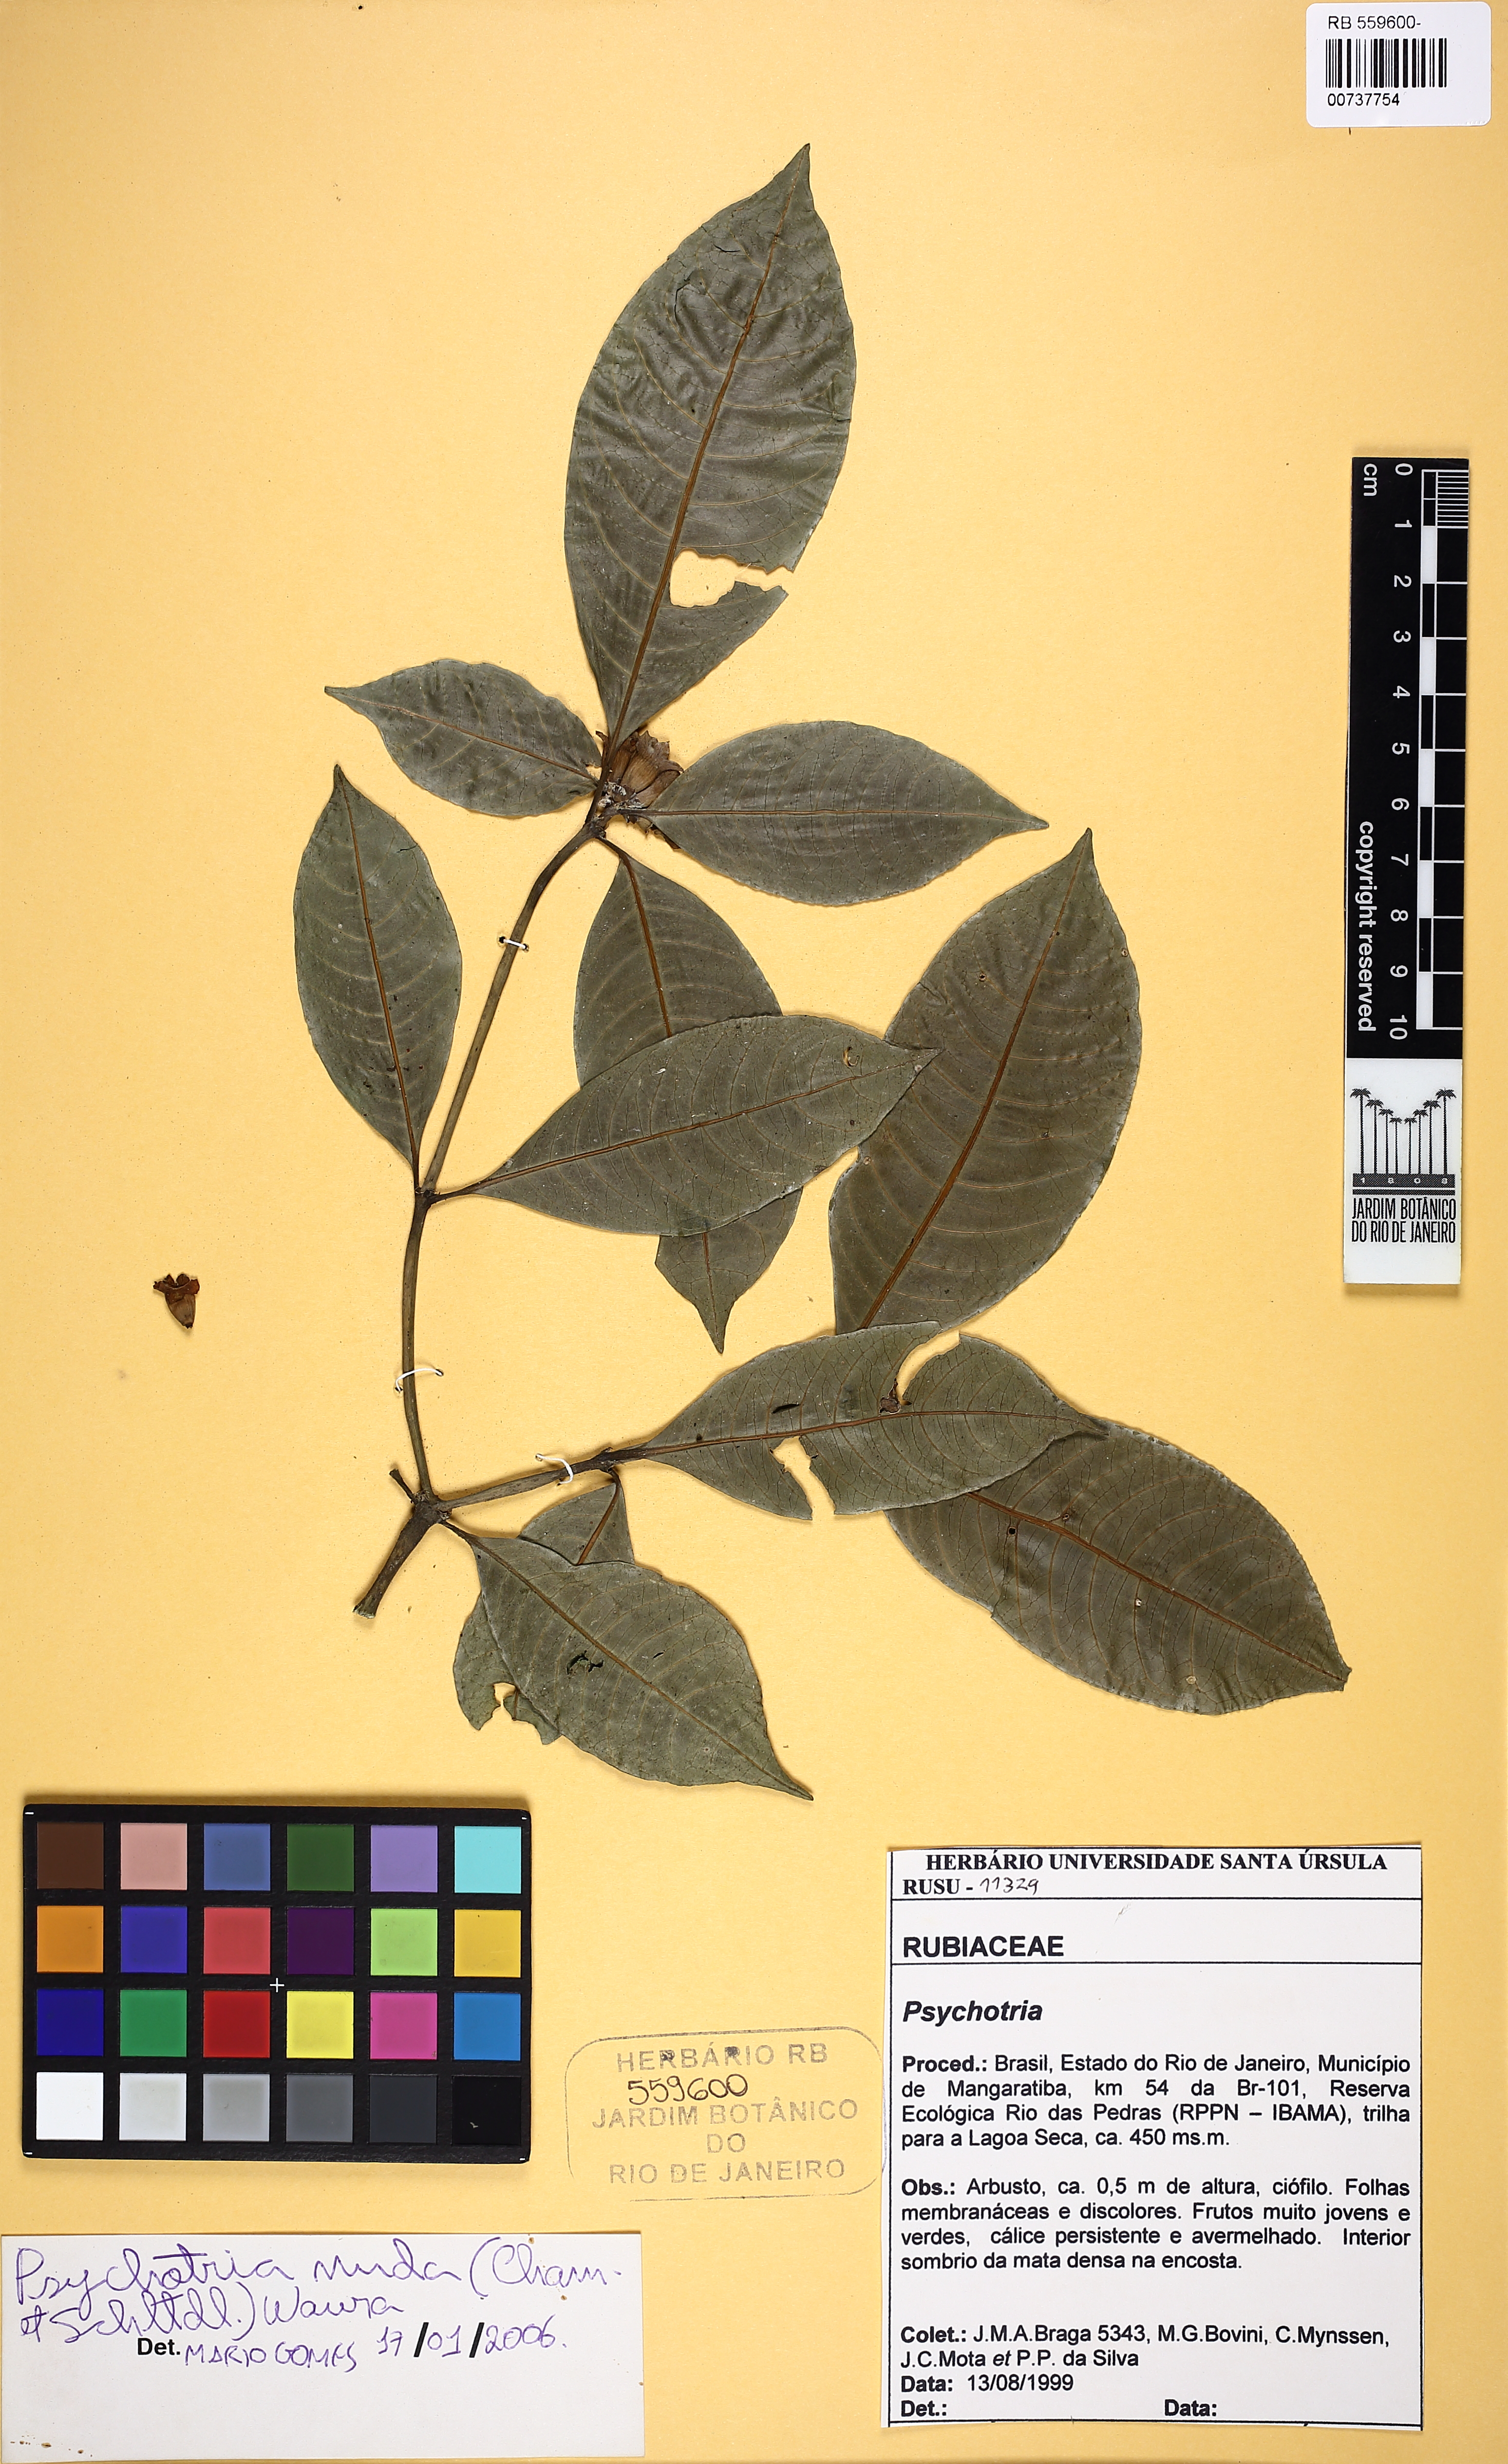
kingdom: Plantae
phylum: Tracheophyta
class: Magnoliopsida
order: Gentianales
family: Rubiaceae
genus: Psychotria
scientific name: Psychotria
